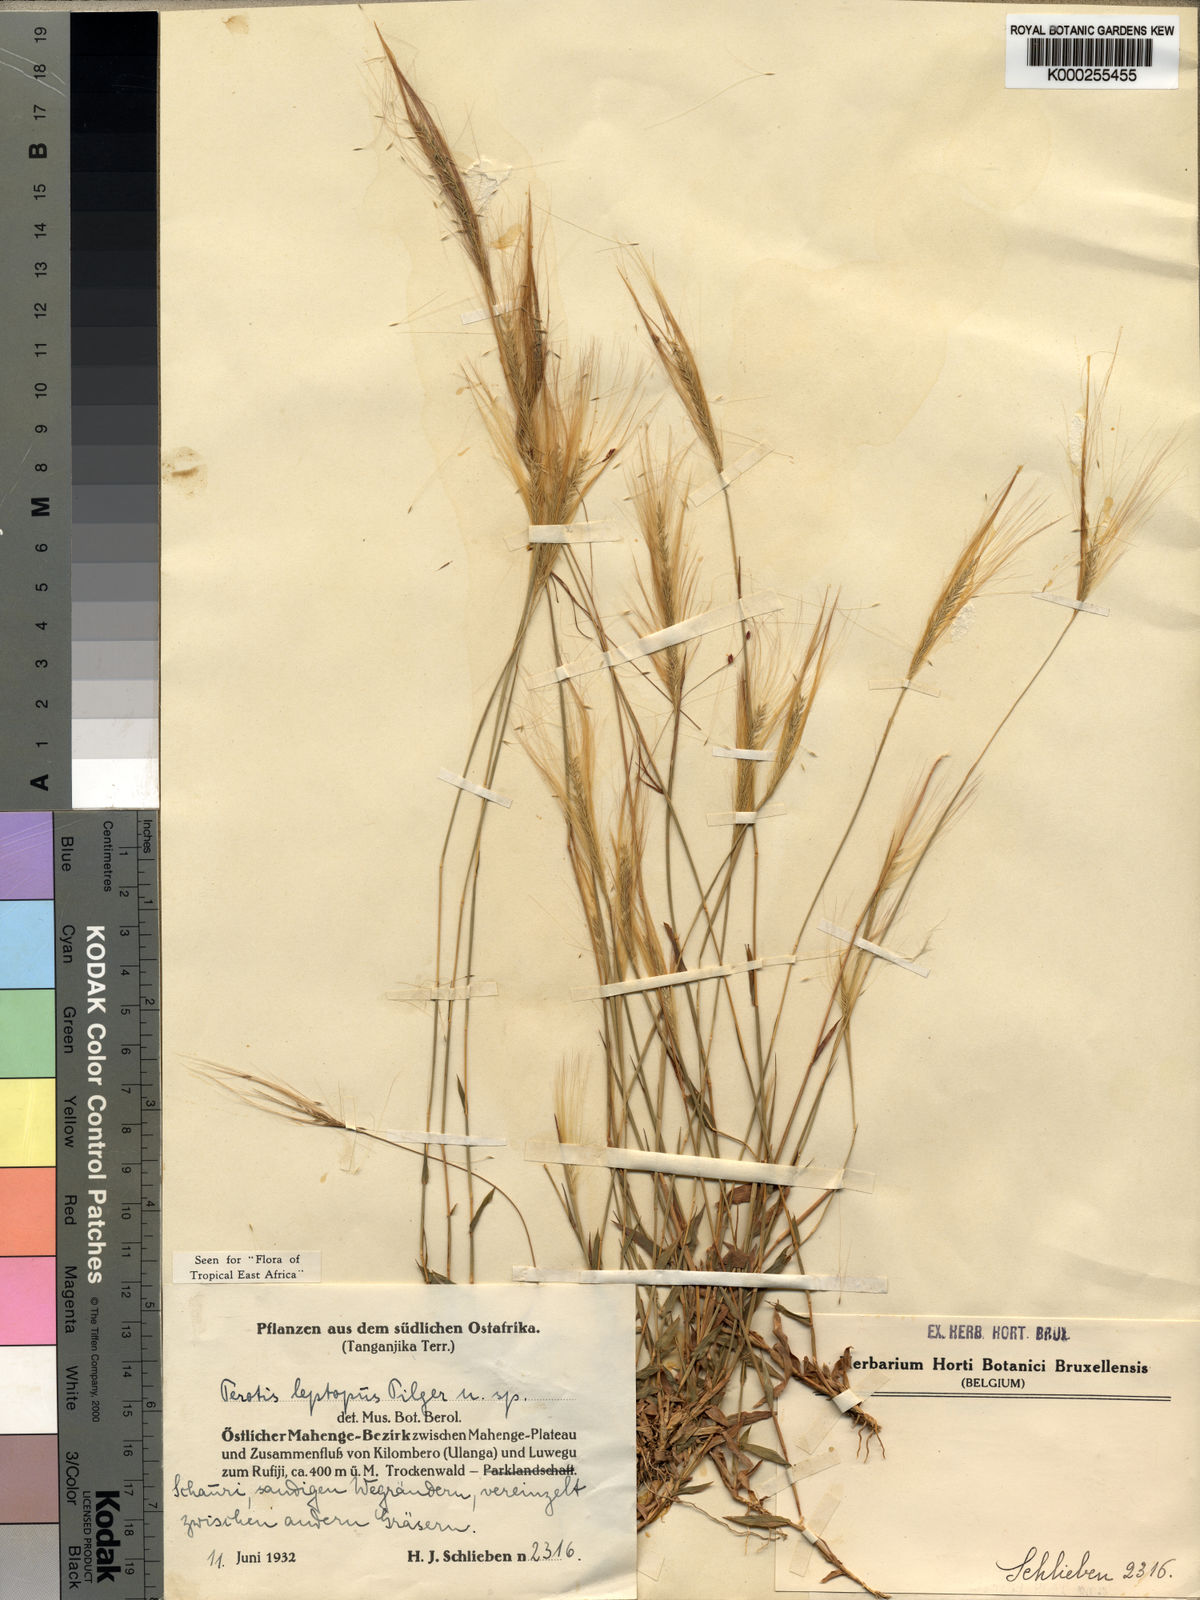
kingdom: Plantae
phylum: Tracheophyta
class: Liliopsida
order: Poales
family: Poaceae
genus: Perotis
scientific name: Perotis leptopus
